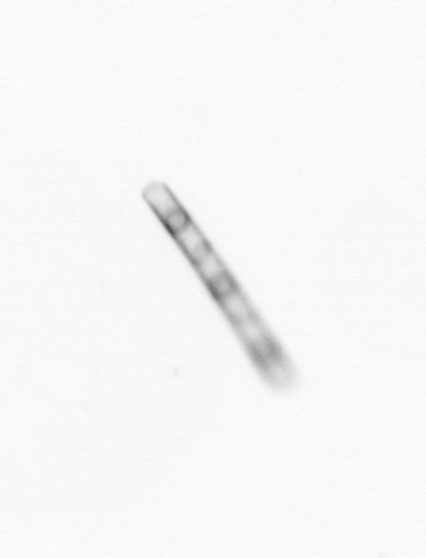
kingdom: Chromista
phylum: Ochrophyta
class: Bacillariophyceae
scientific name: Bacillariophyceae
